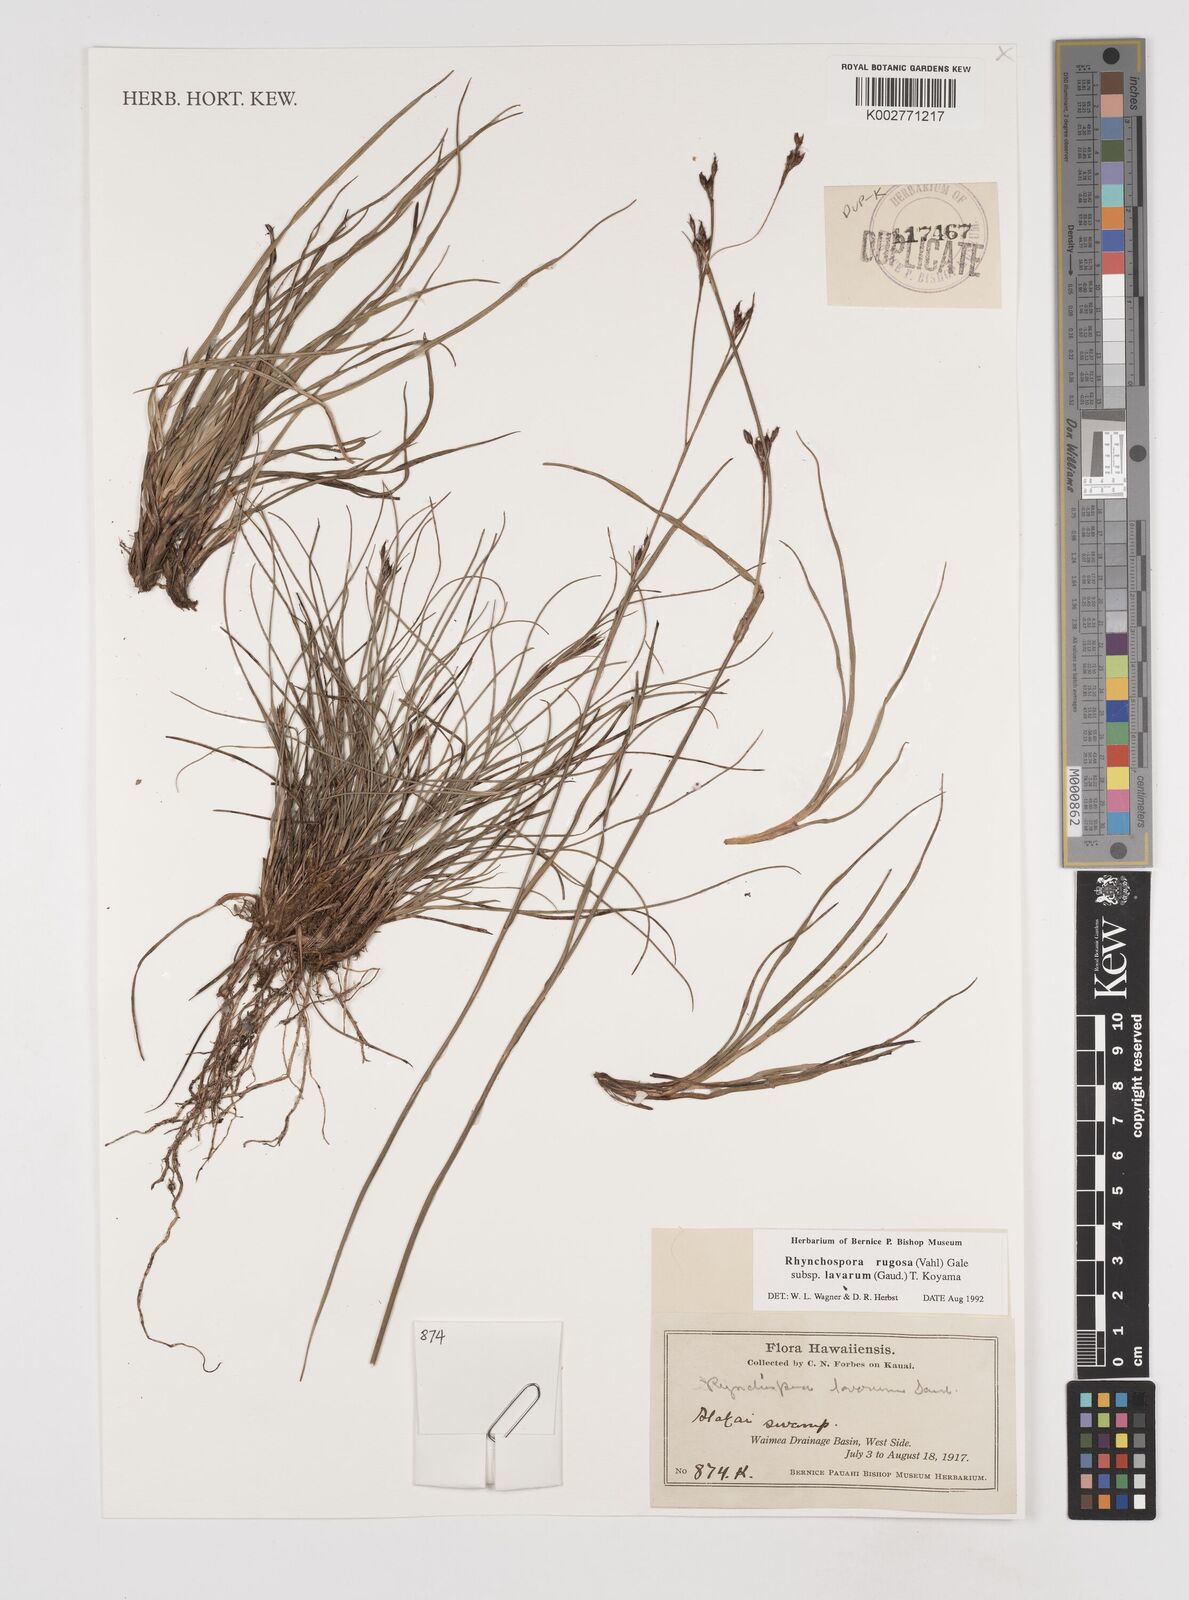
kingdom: Plantae
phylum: Tracheophyta
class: Liliopsida
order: Poales
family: Cyperaceae
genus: Rhynchospora
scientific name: Rhynchospora rugosa
